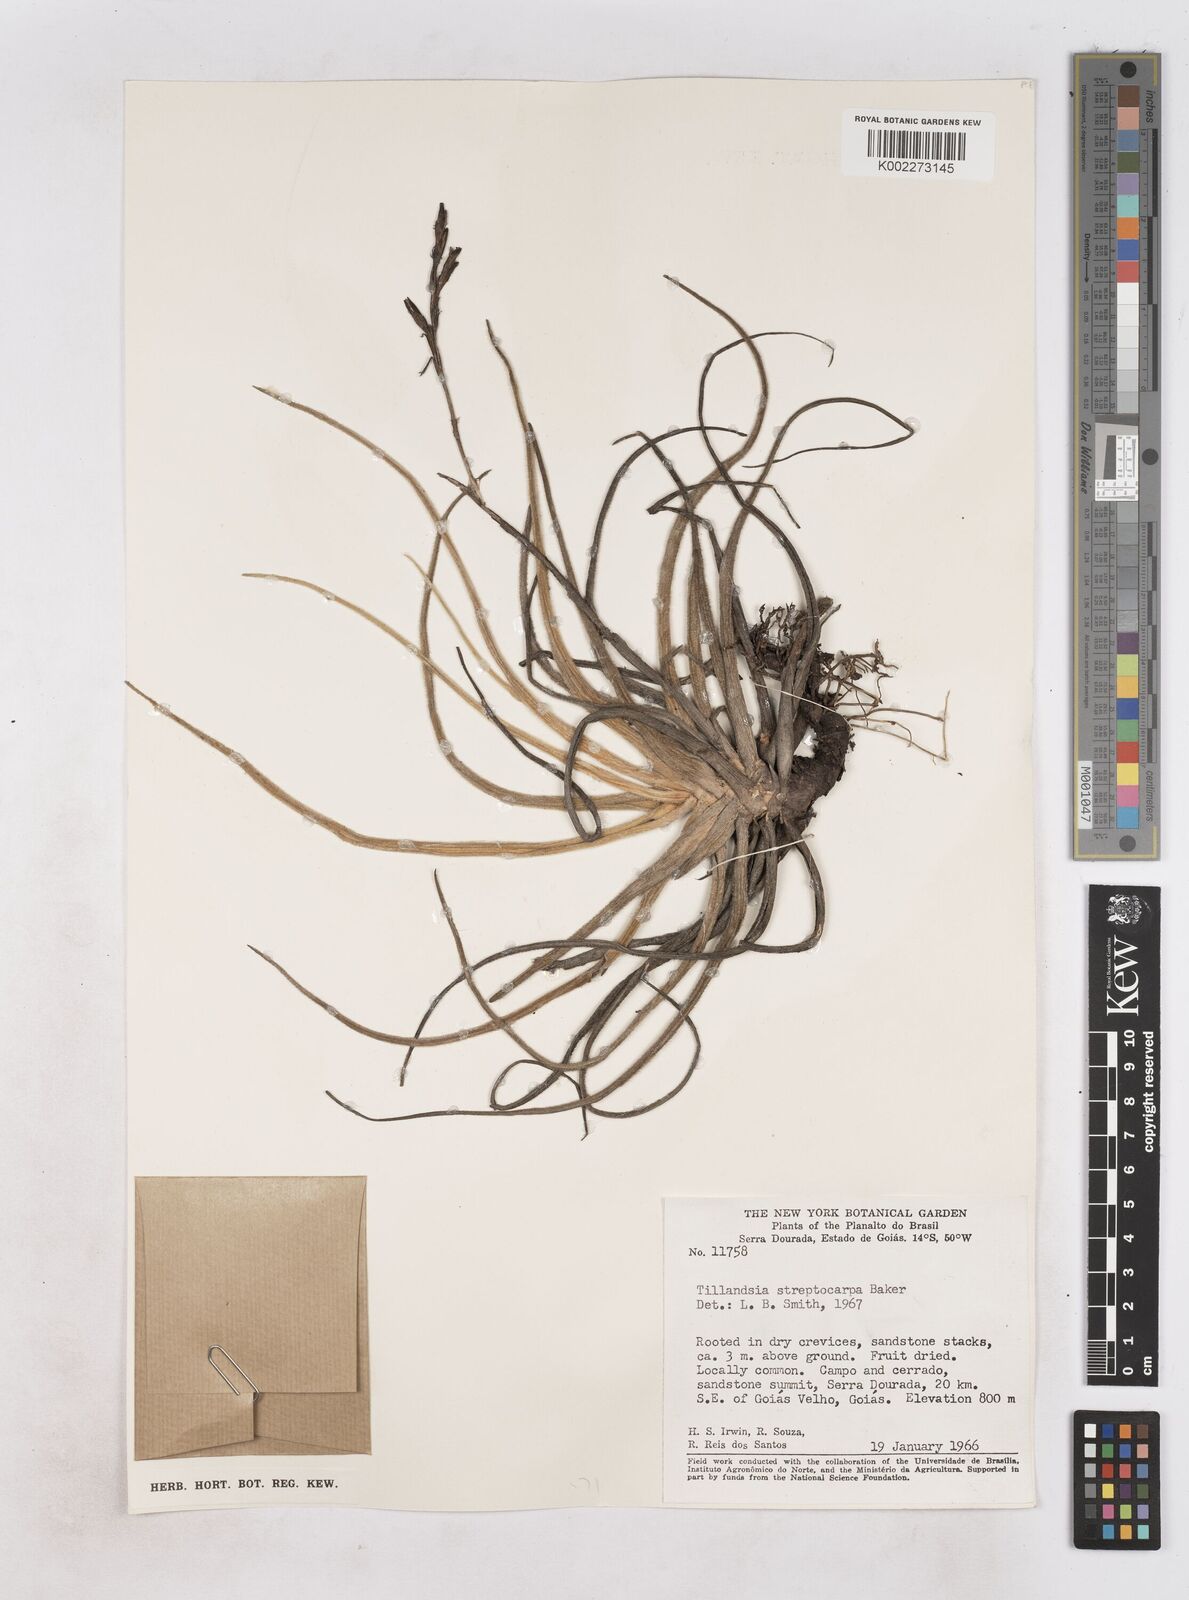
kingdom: Plantae
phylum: Tracheophyta
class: Liliopsida
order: Poales
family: Bromeliaceae
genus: Tillandsia
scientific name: Tillandsia streptocarpa
